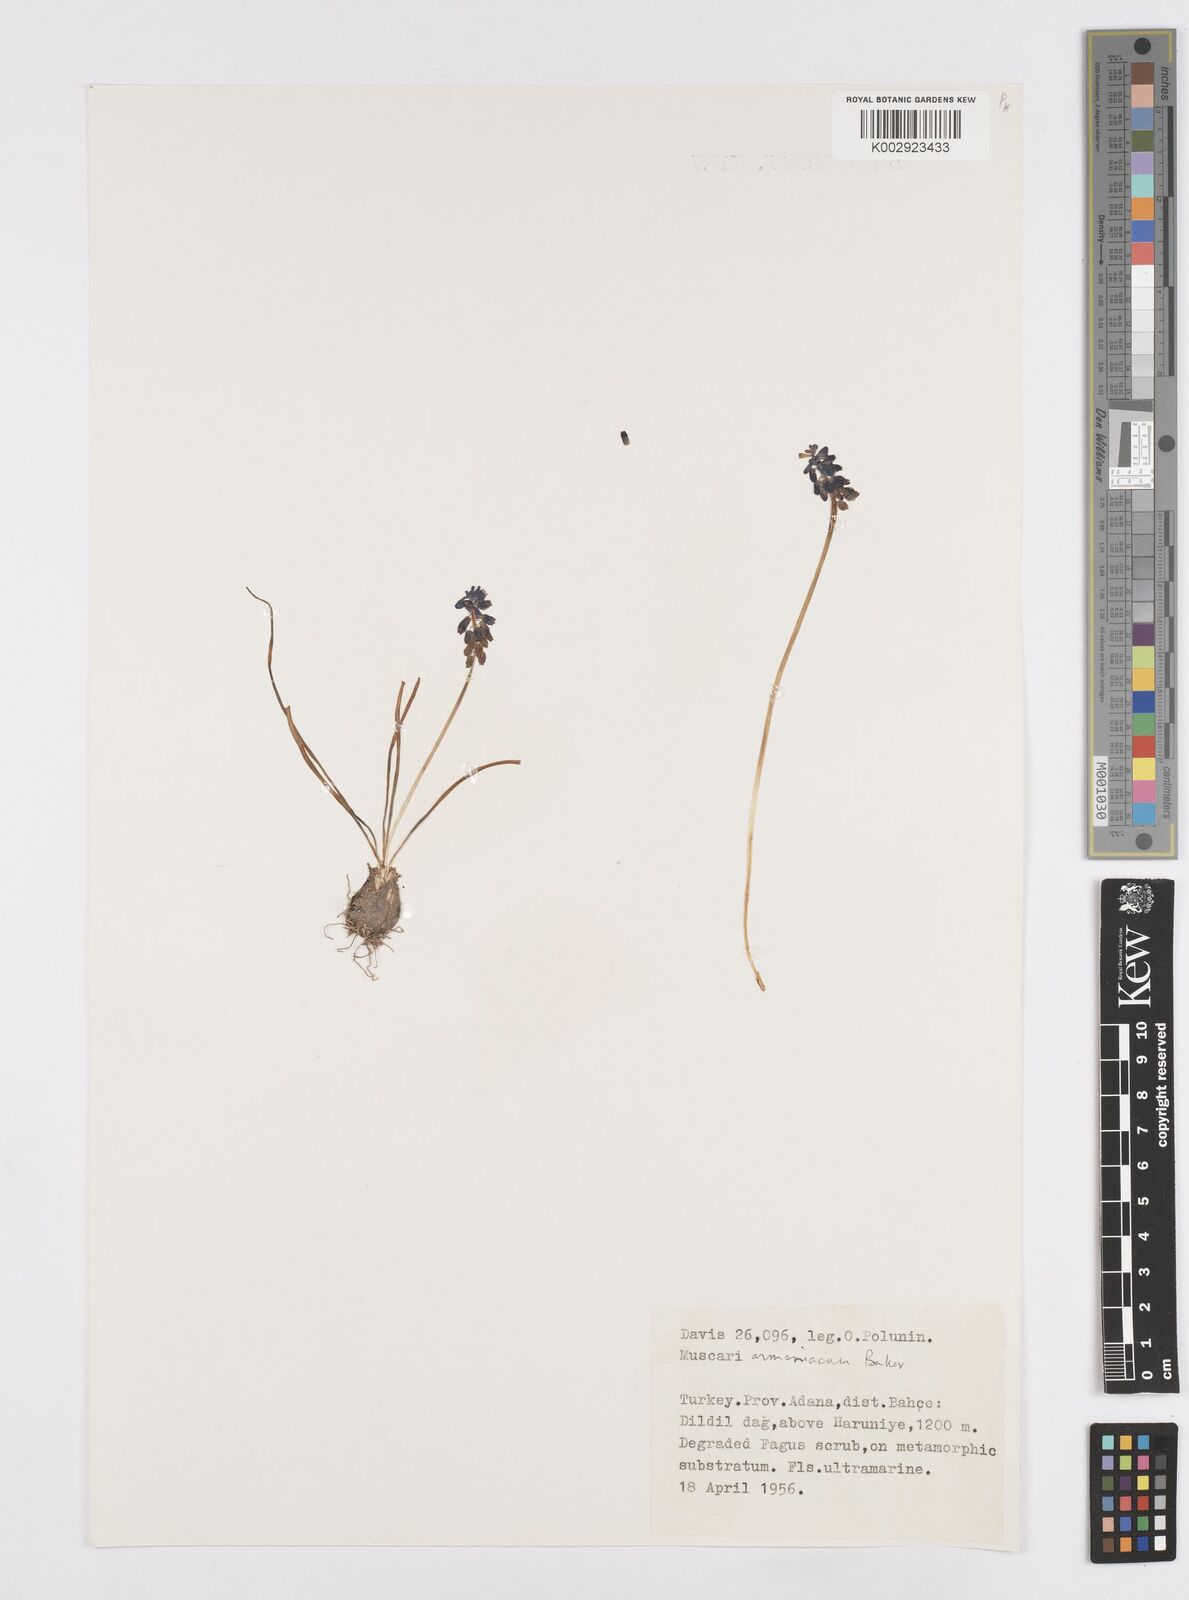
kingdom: Plantae
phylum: Tracheophyta
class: Liliopsida
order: Asparagales
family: Asparagaceae
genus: Muscari
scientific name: Muscari neglectum
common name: Grape-hyacinth
